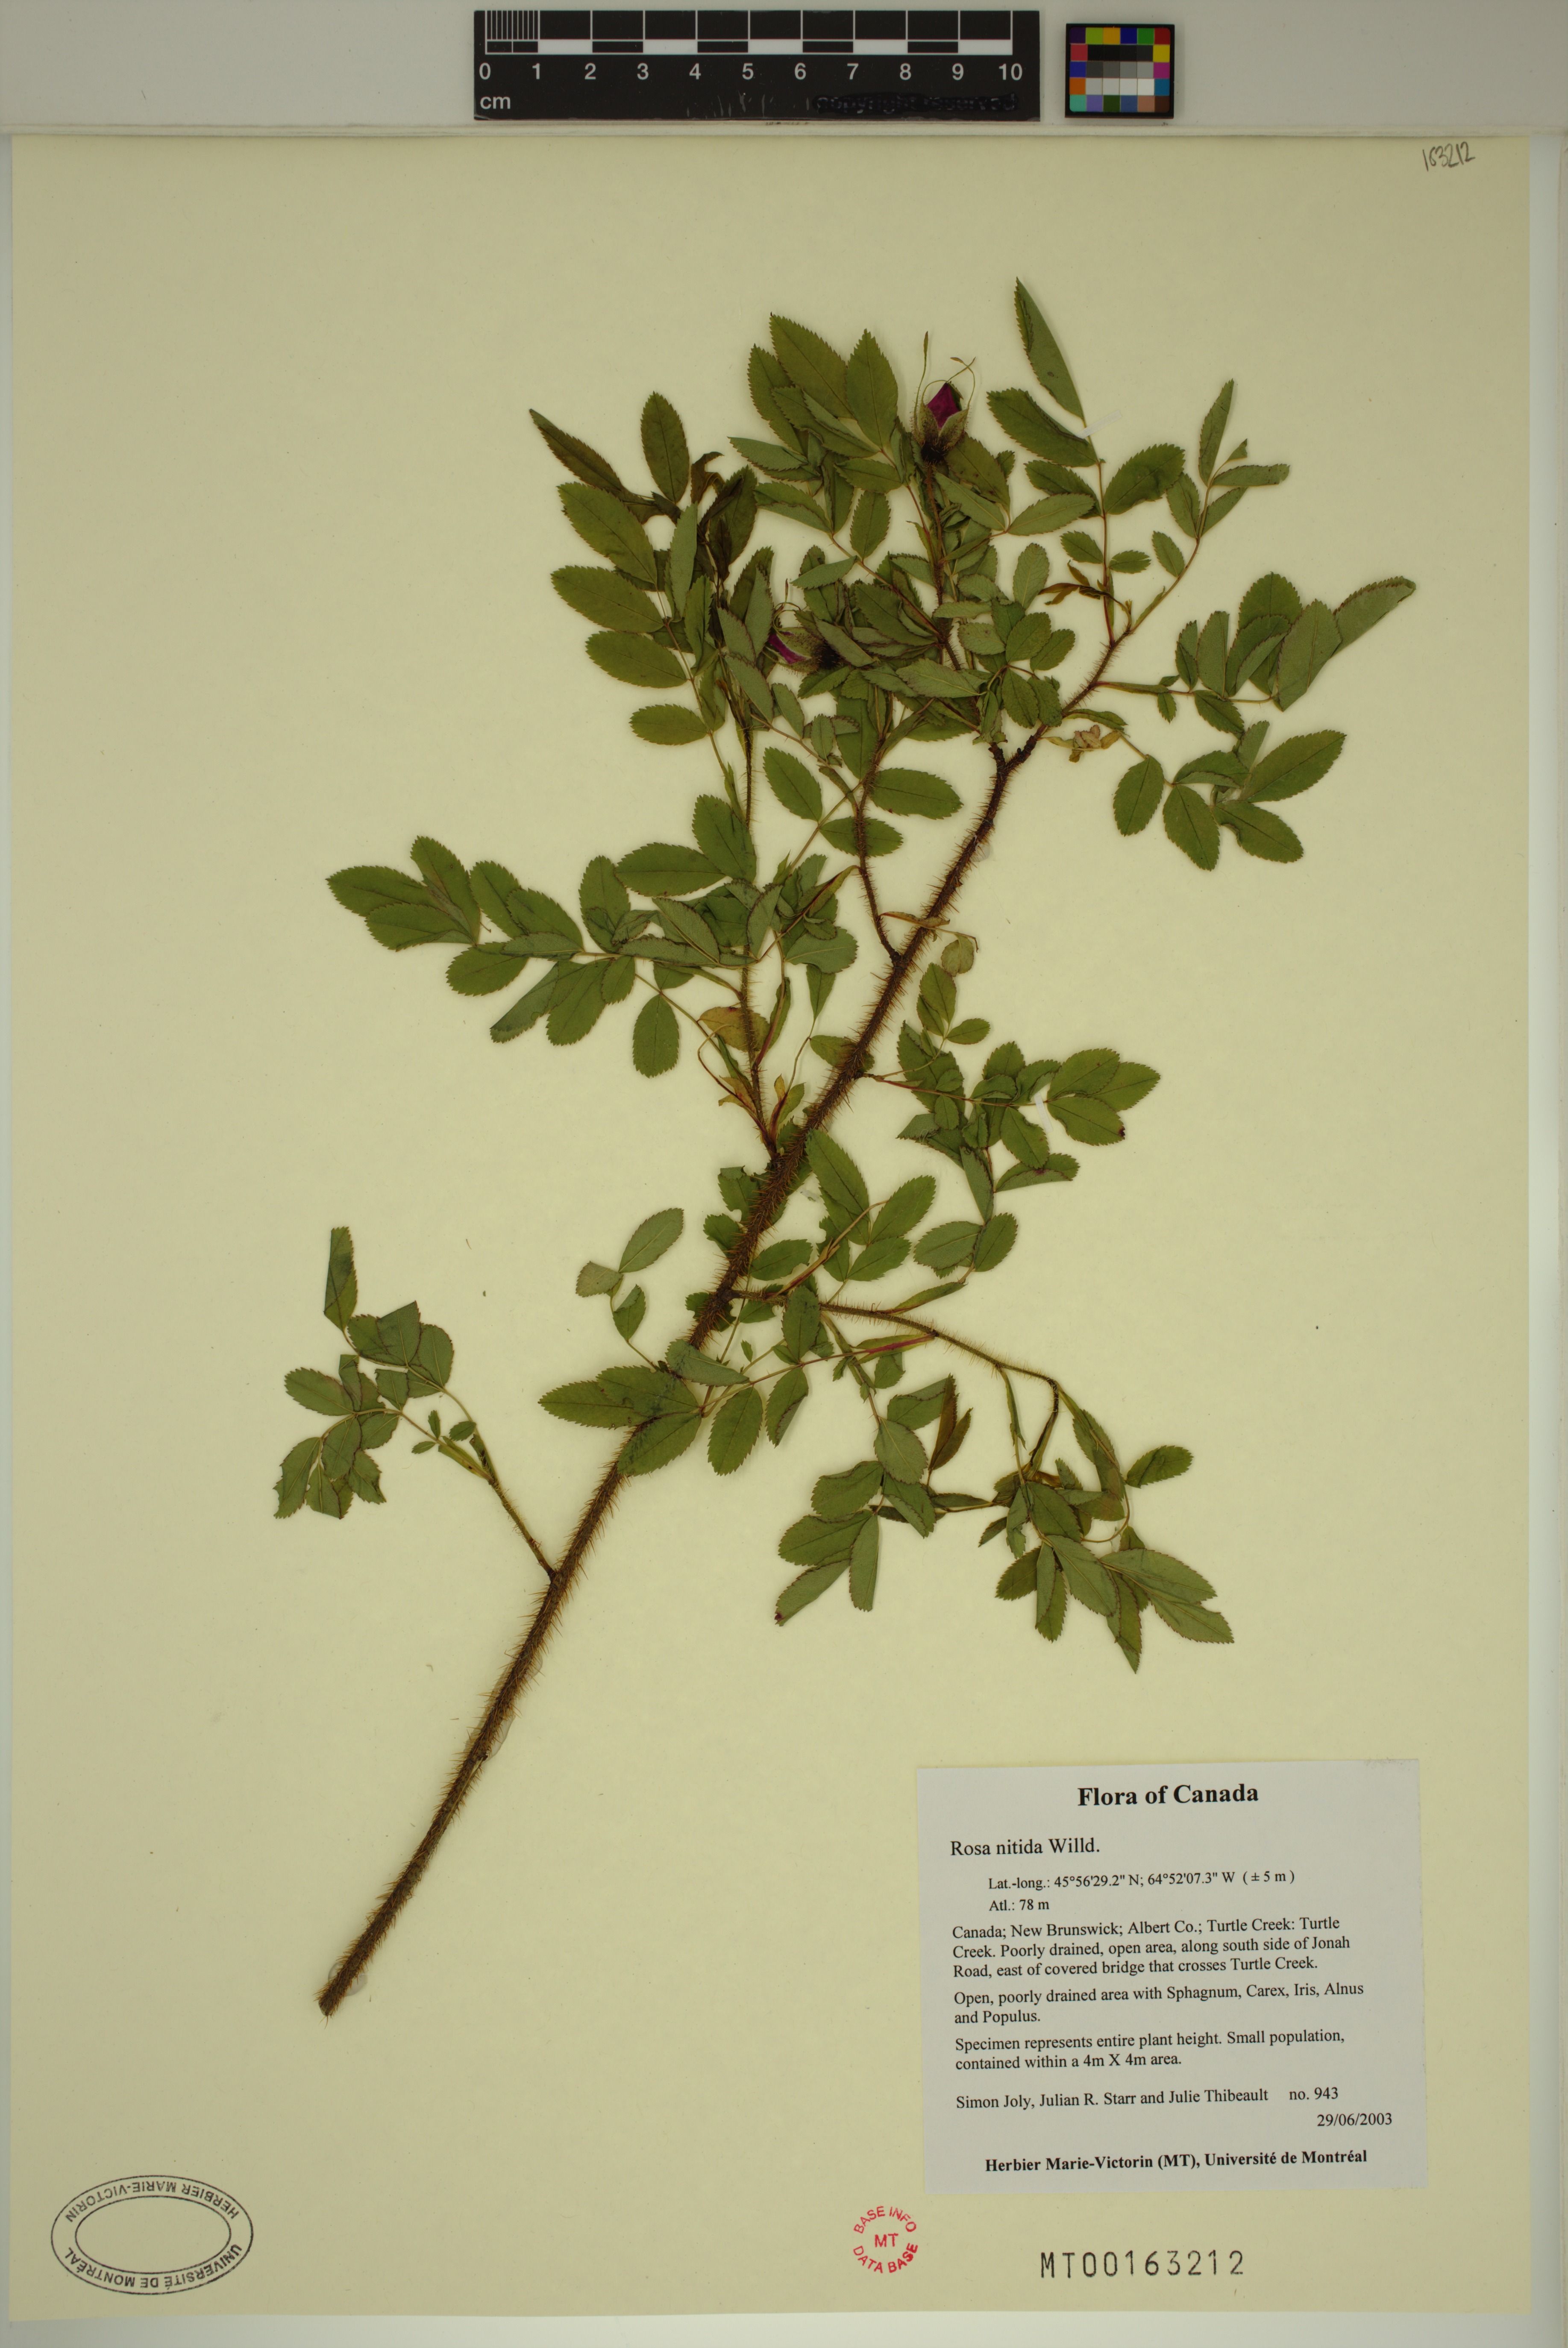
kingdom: Plantae
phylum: Tracheophyta
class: Magnoliopsida
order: Rosales
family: Rosaceae
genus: Rosa
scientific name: Rosa nitida
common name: New england rose
